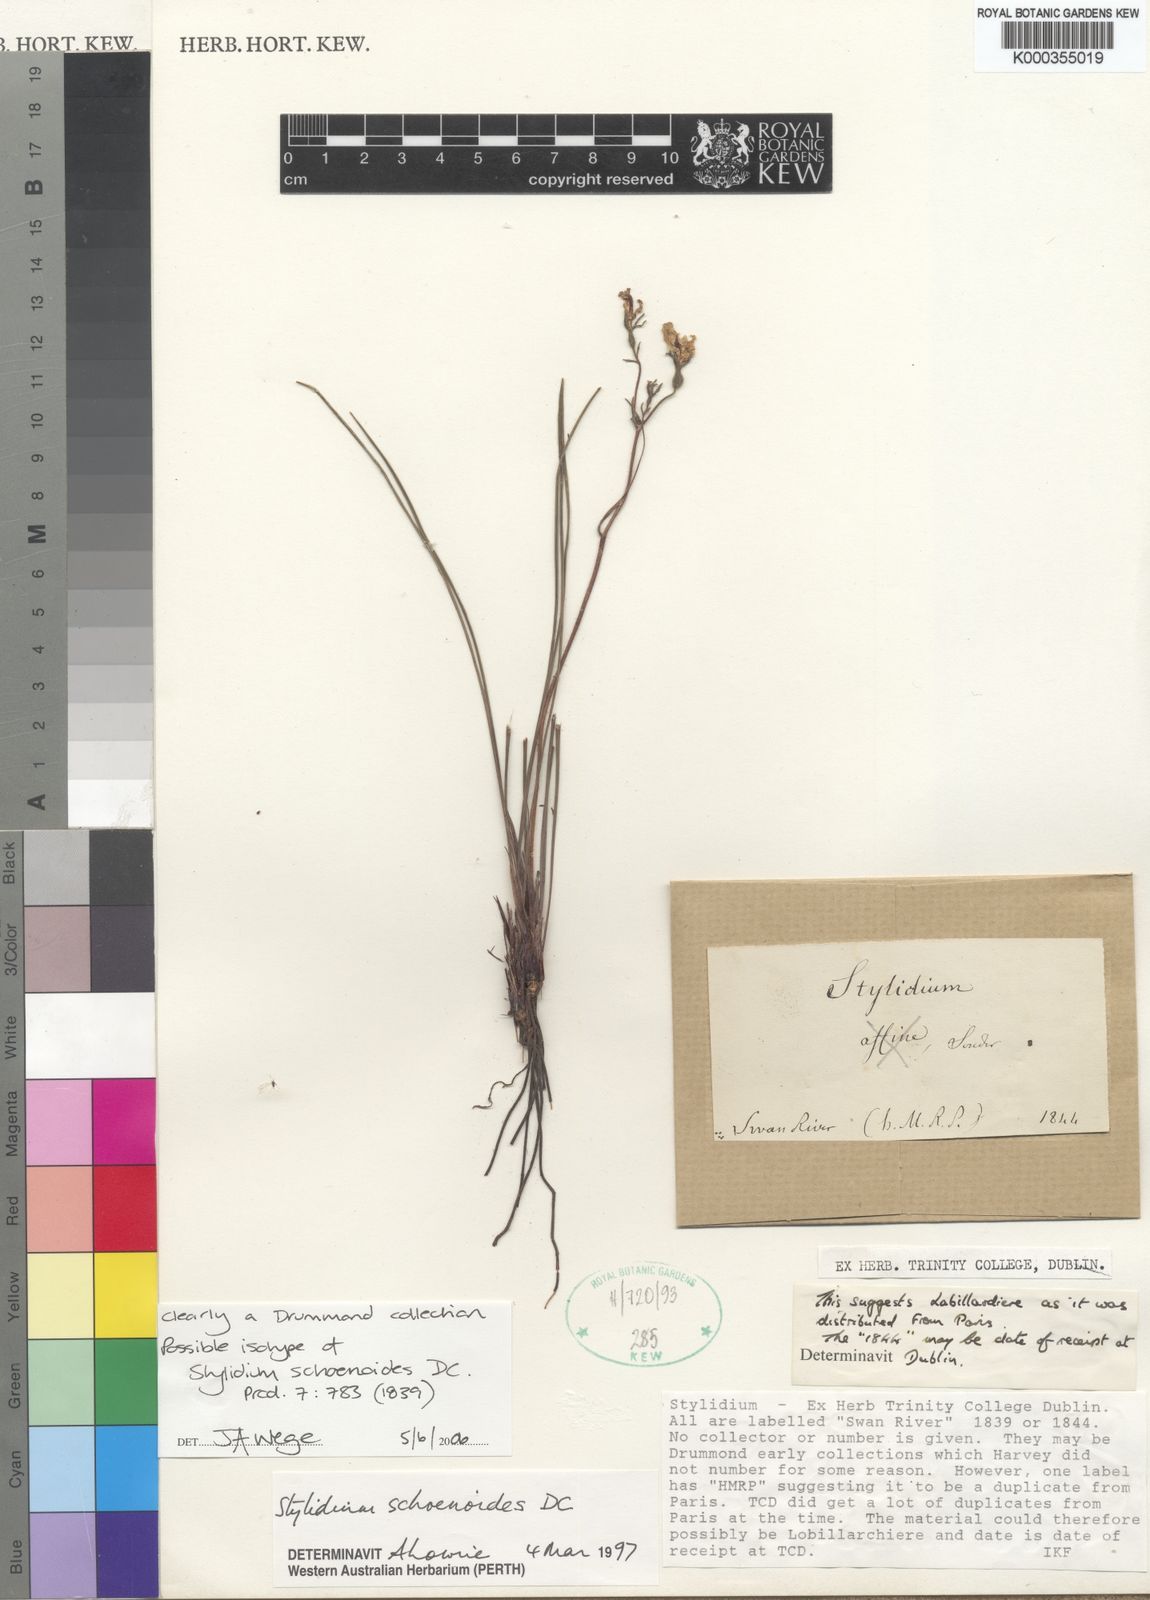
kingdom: Plantae
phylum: Tracheophyta
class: Magnoliopsida
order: Asterales
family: Stylidiaceae
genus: Stylidium
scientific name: Stylidium schoenoides
